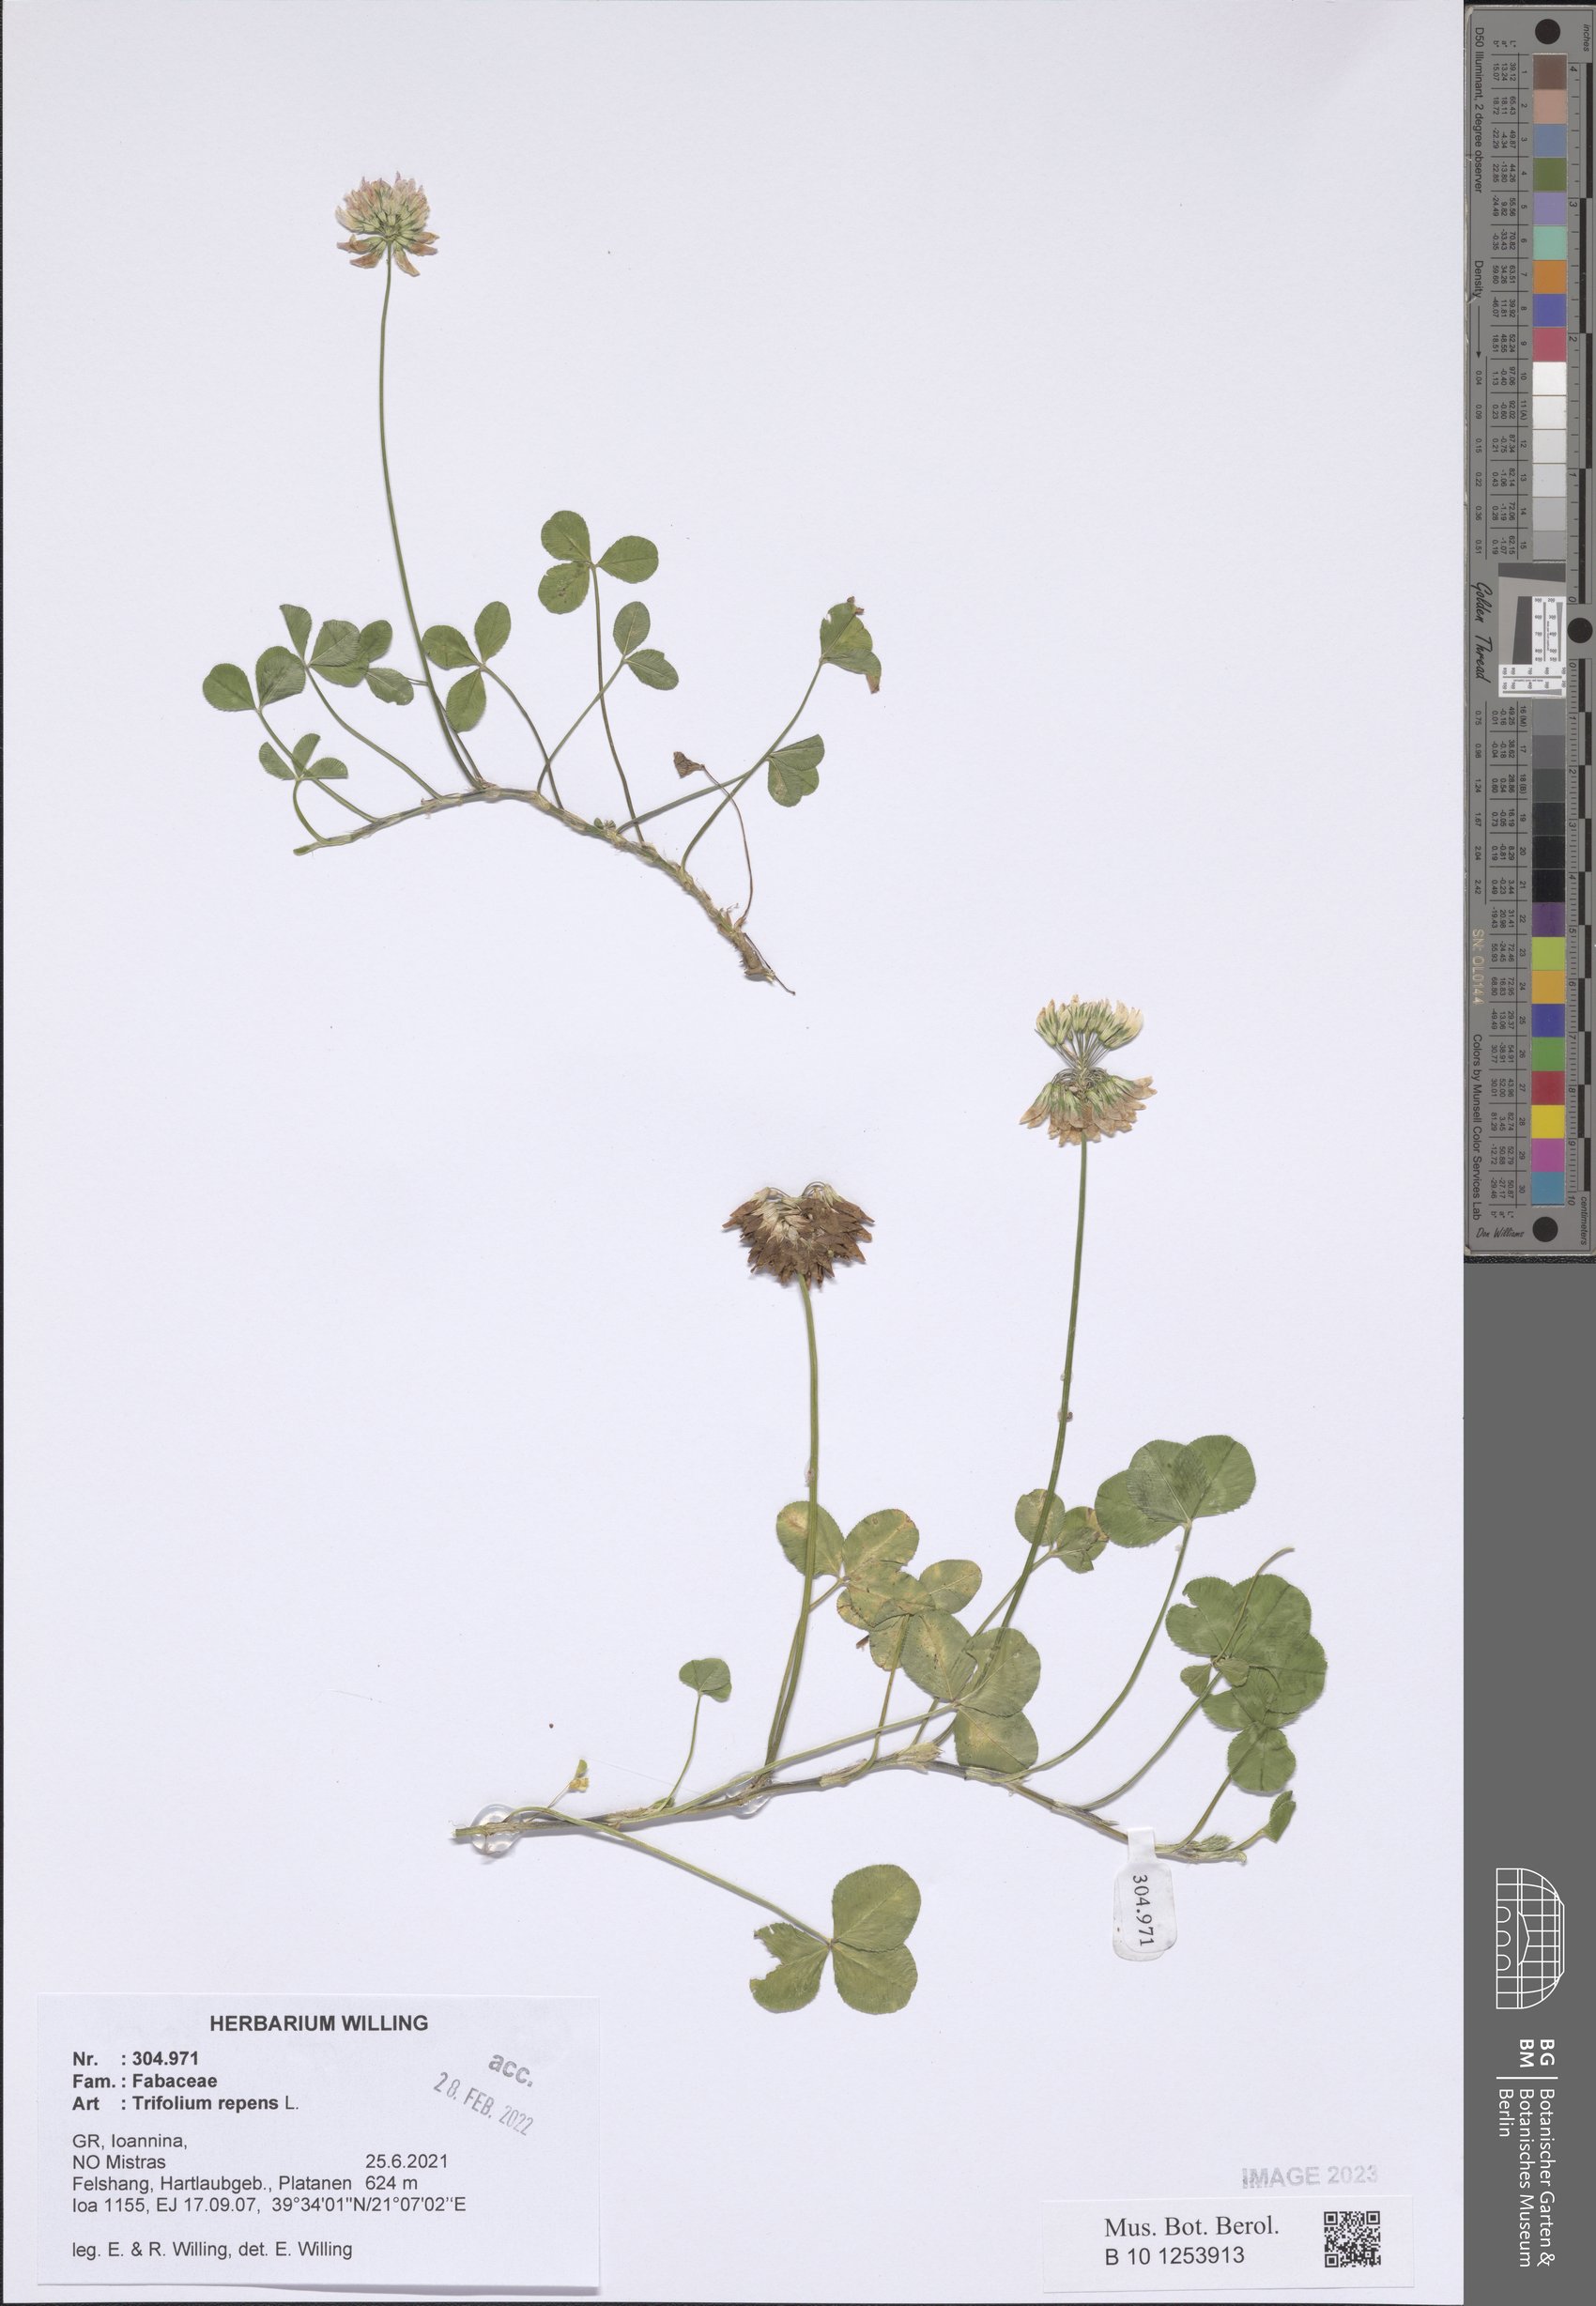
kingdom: Plantae
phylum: Tracheophyta
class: Magnoliopsida
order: Fabales
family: Fabaceae
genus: Trifolium
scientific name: Trifolium repens
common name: White clover
